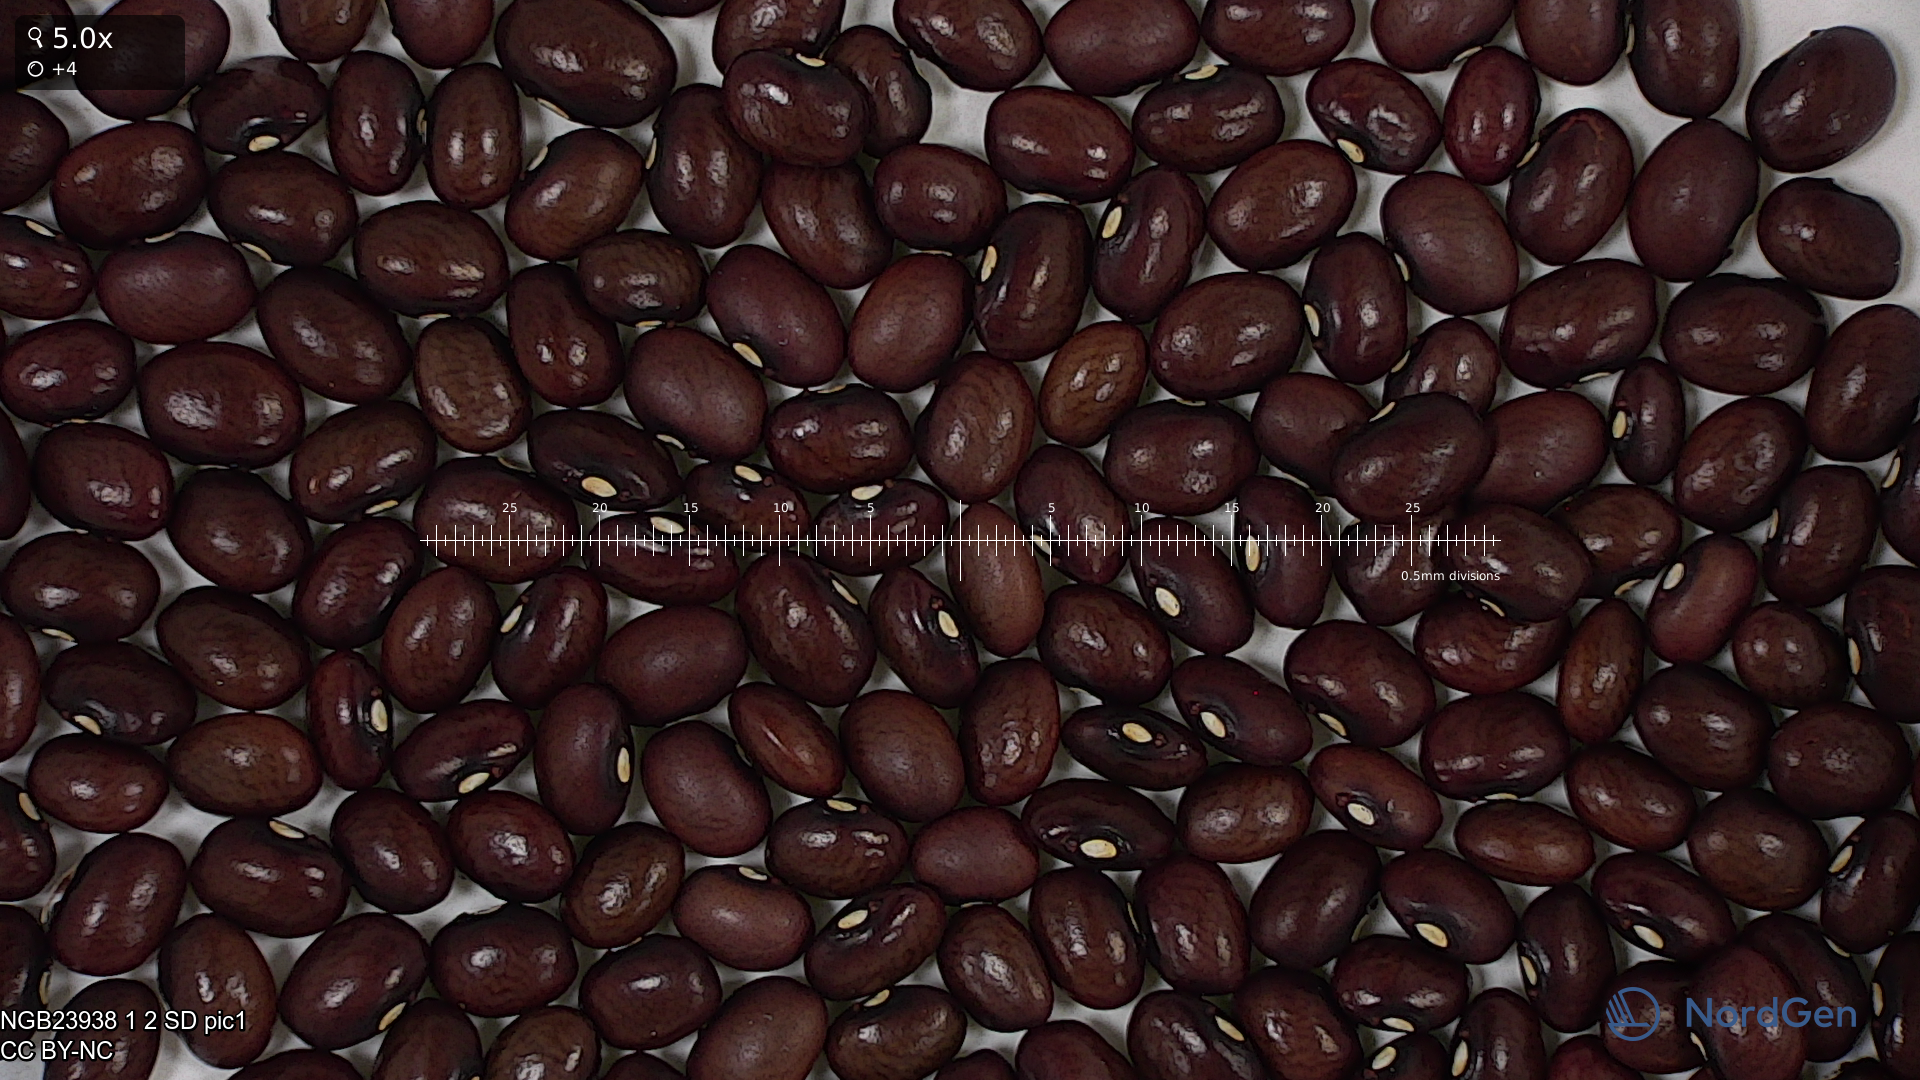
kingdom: Plantae
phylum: Tracheophyta
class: Magnoliopsida
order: Fabales
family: Fabaceae
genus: Phaseolus
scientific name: Phaseolus vulgaris
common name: Bean
